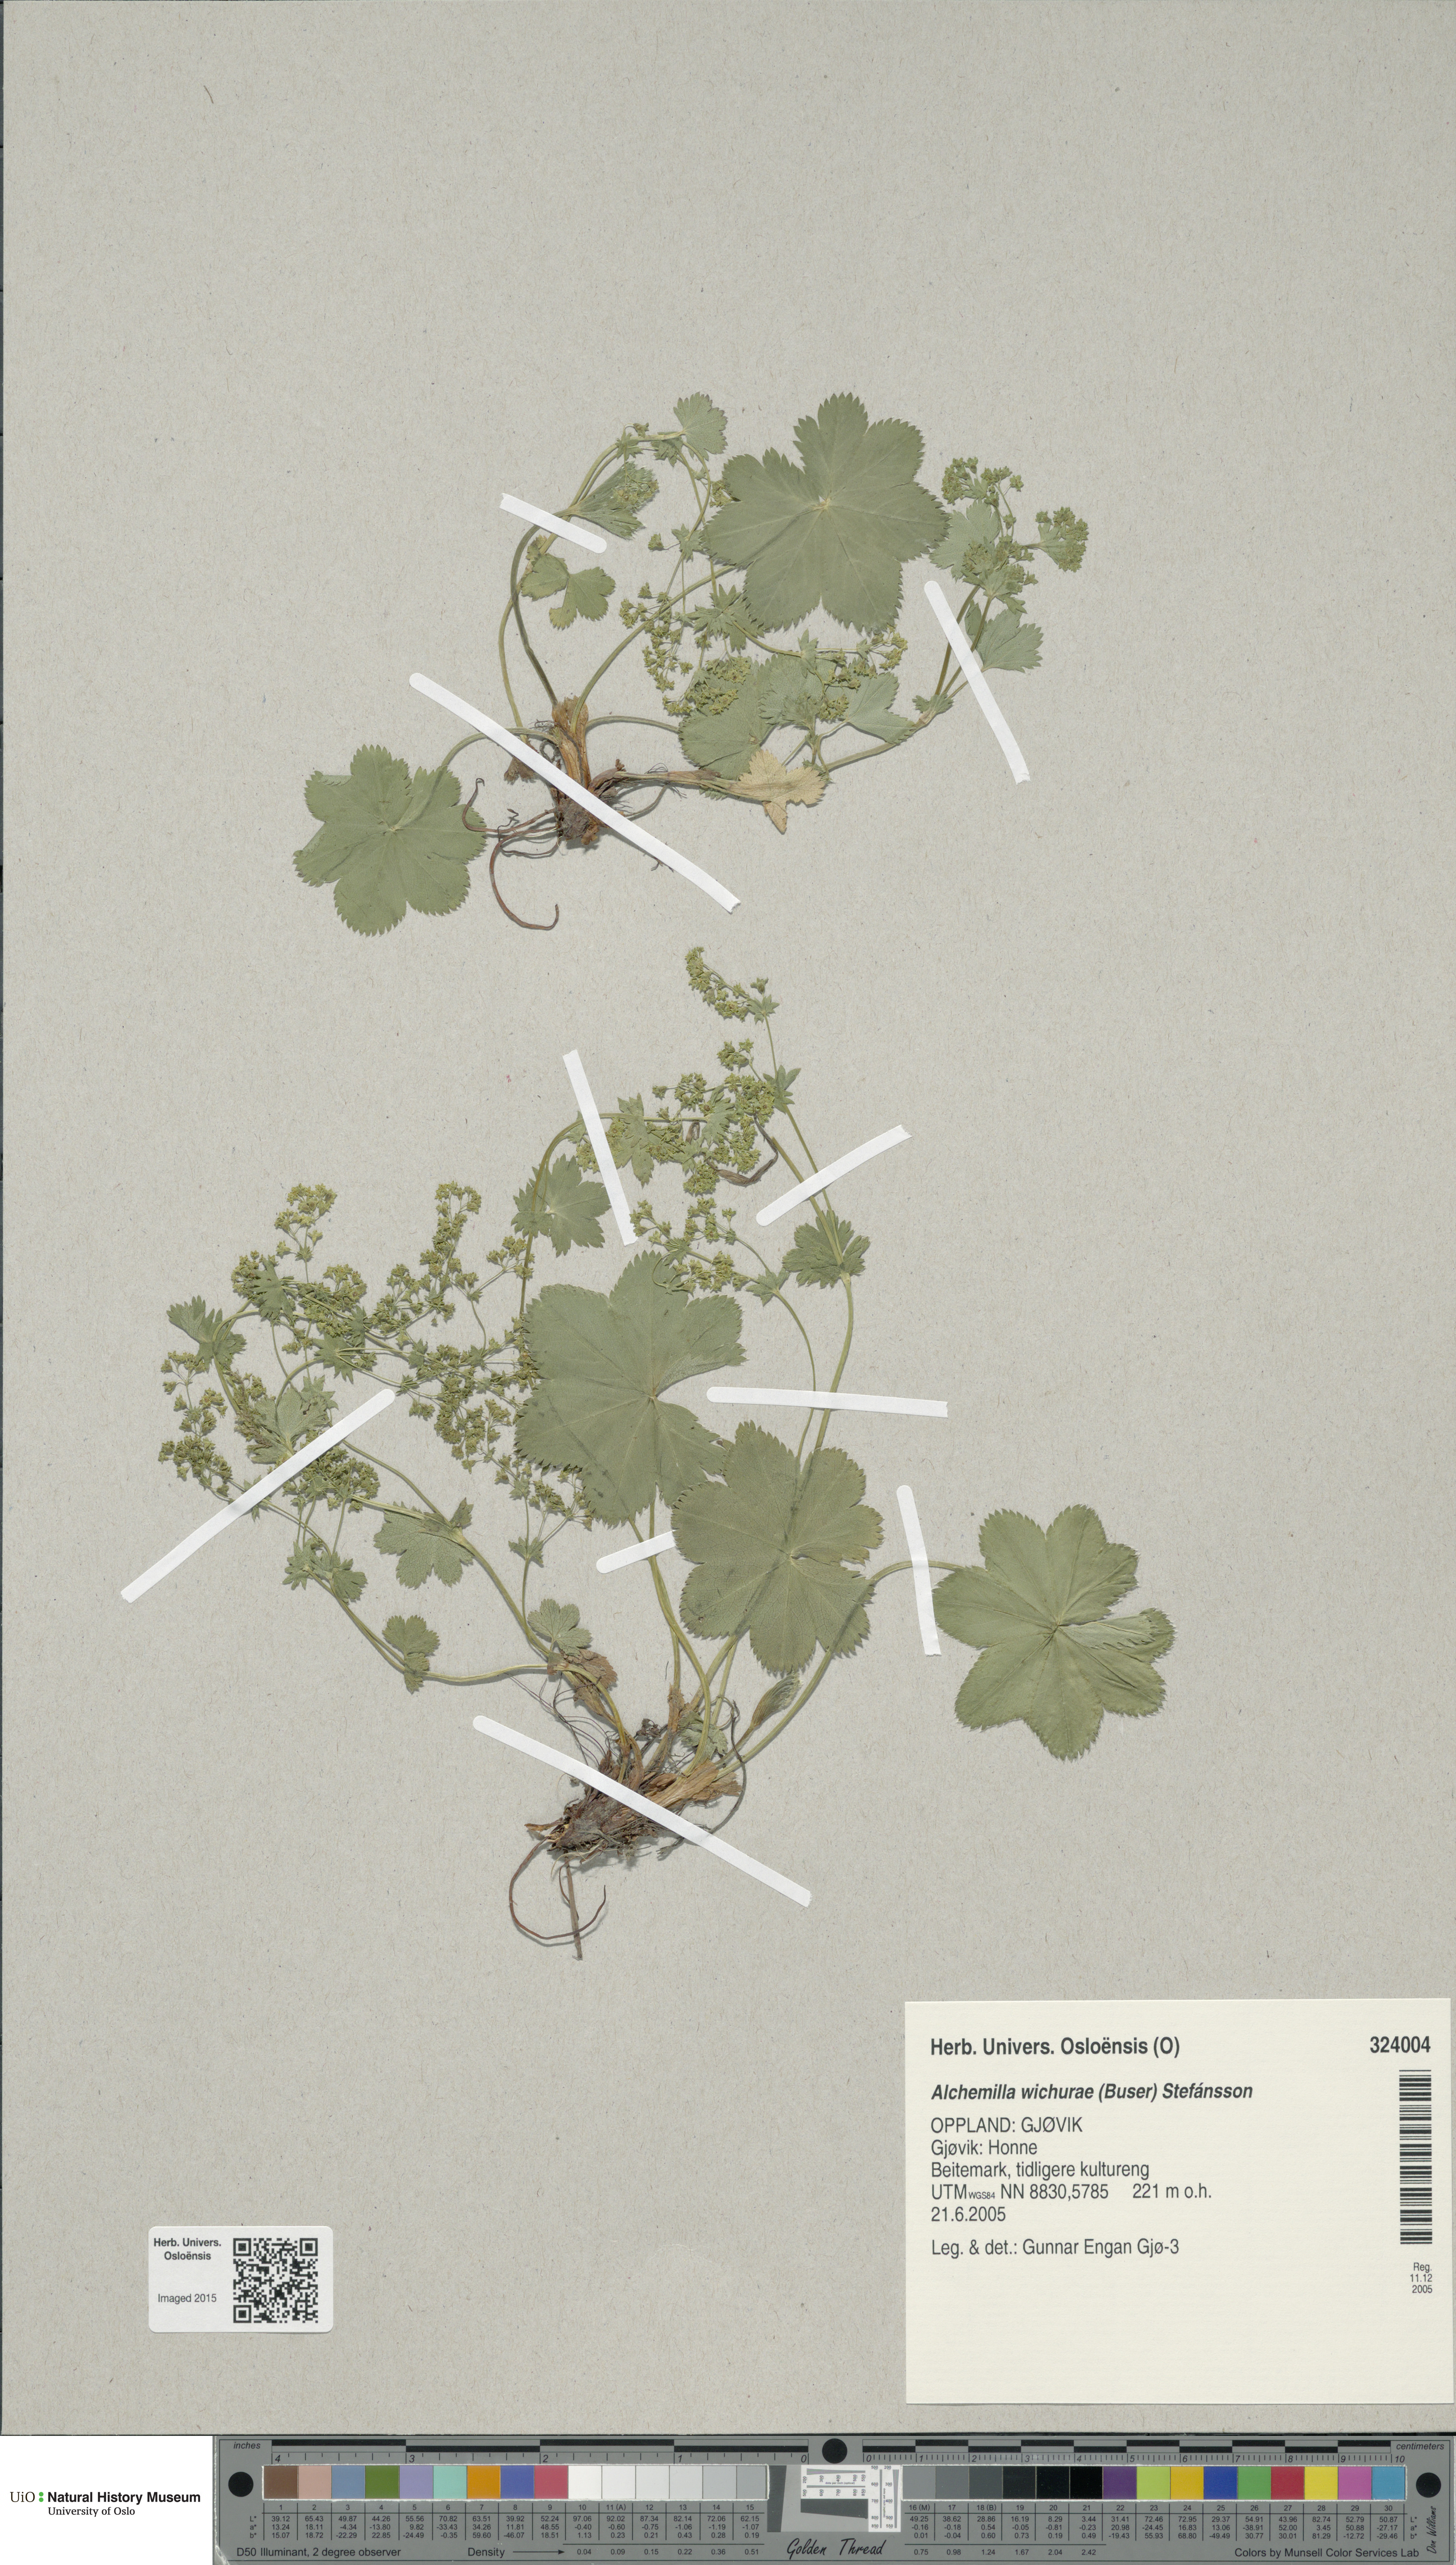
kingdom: Plantae
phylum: Tracheophyta
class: Magnoliopsida
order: Rosales
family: Rosaceae
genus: Alchemilla
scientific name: Alchemilla wichurae
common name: Rock lady's mantle
